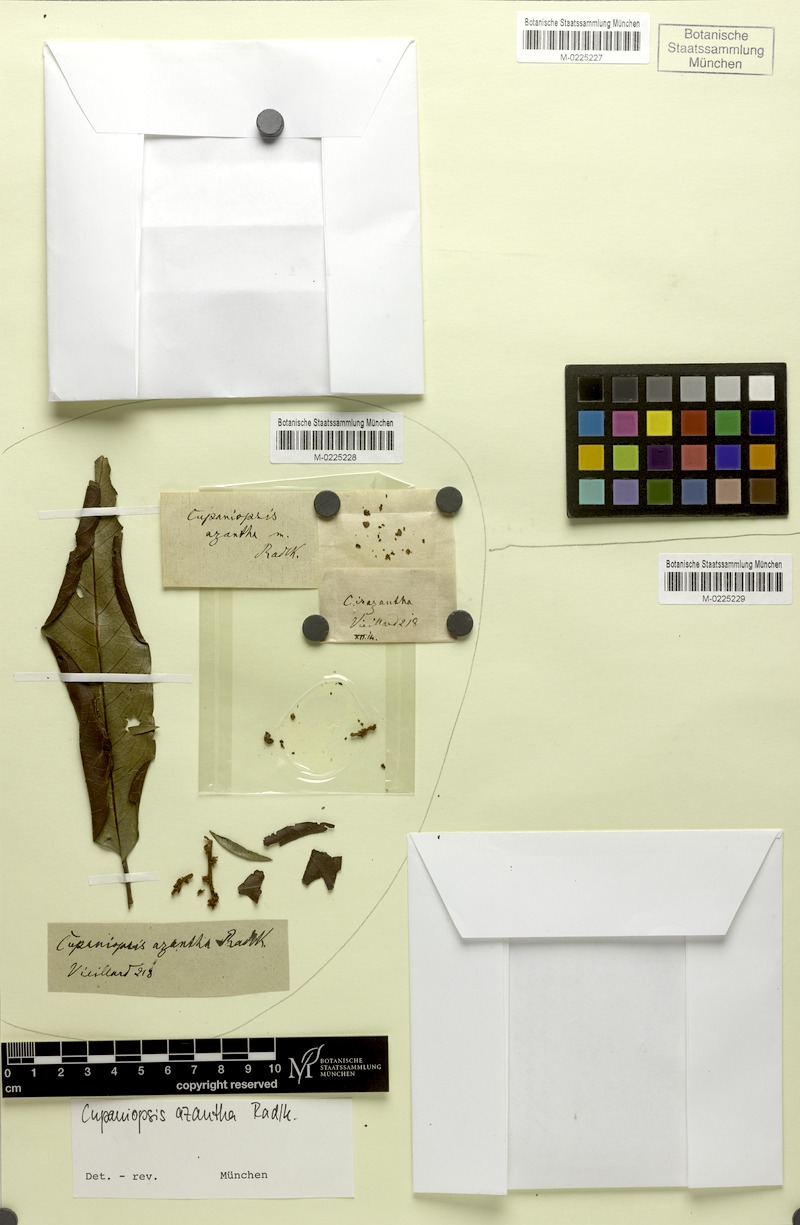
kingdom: Plantae
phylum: Tracheophyta
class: Magnoliopsida
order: Sapindales
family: Sapindaceae
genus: Cupaniopsis
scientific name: Cupaniopsis azantha
